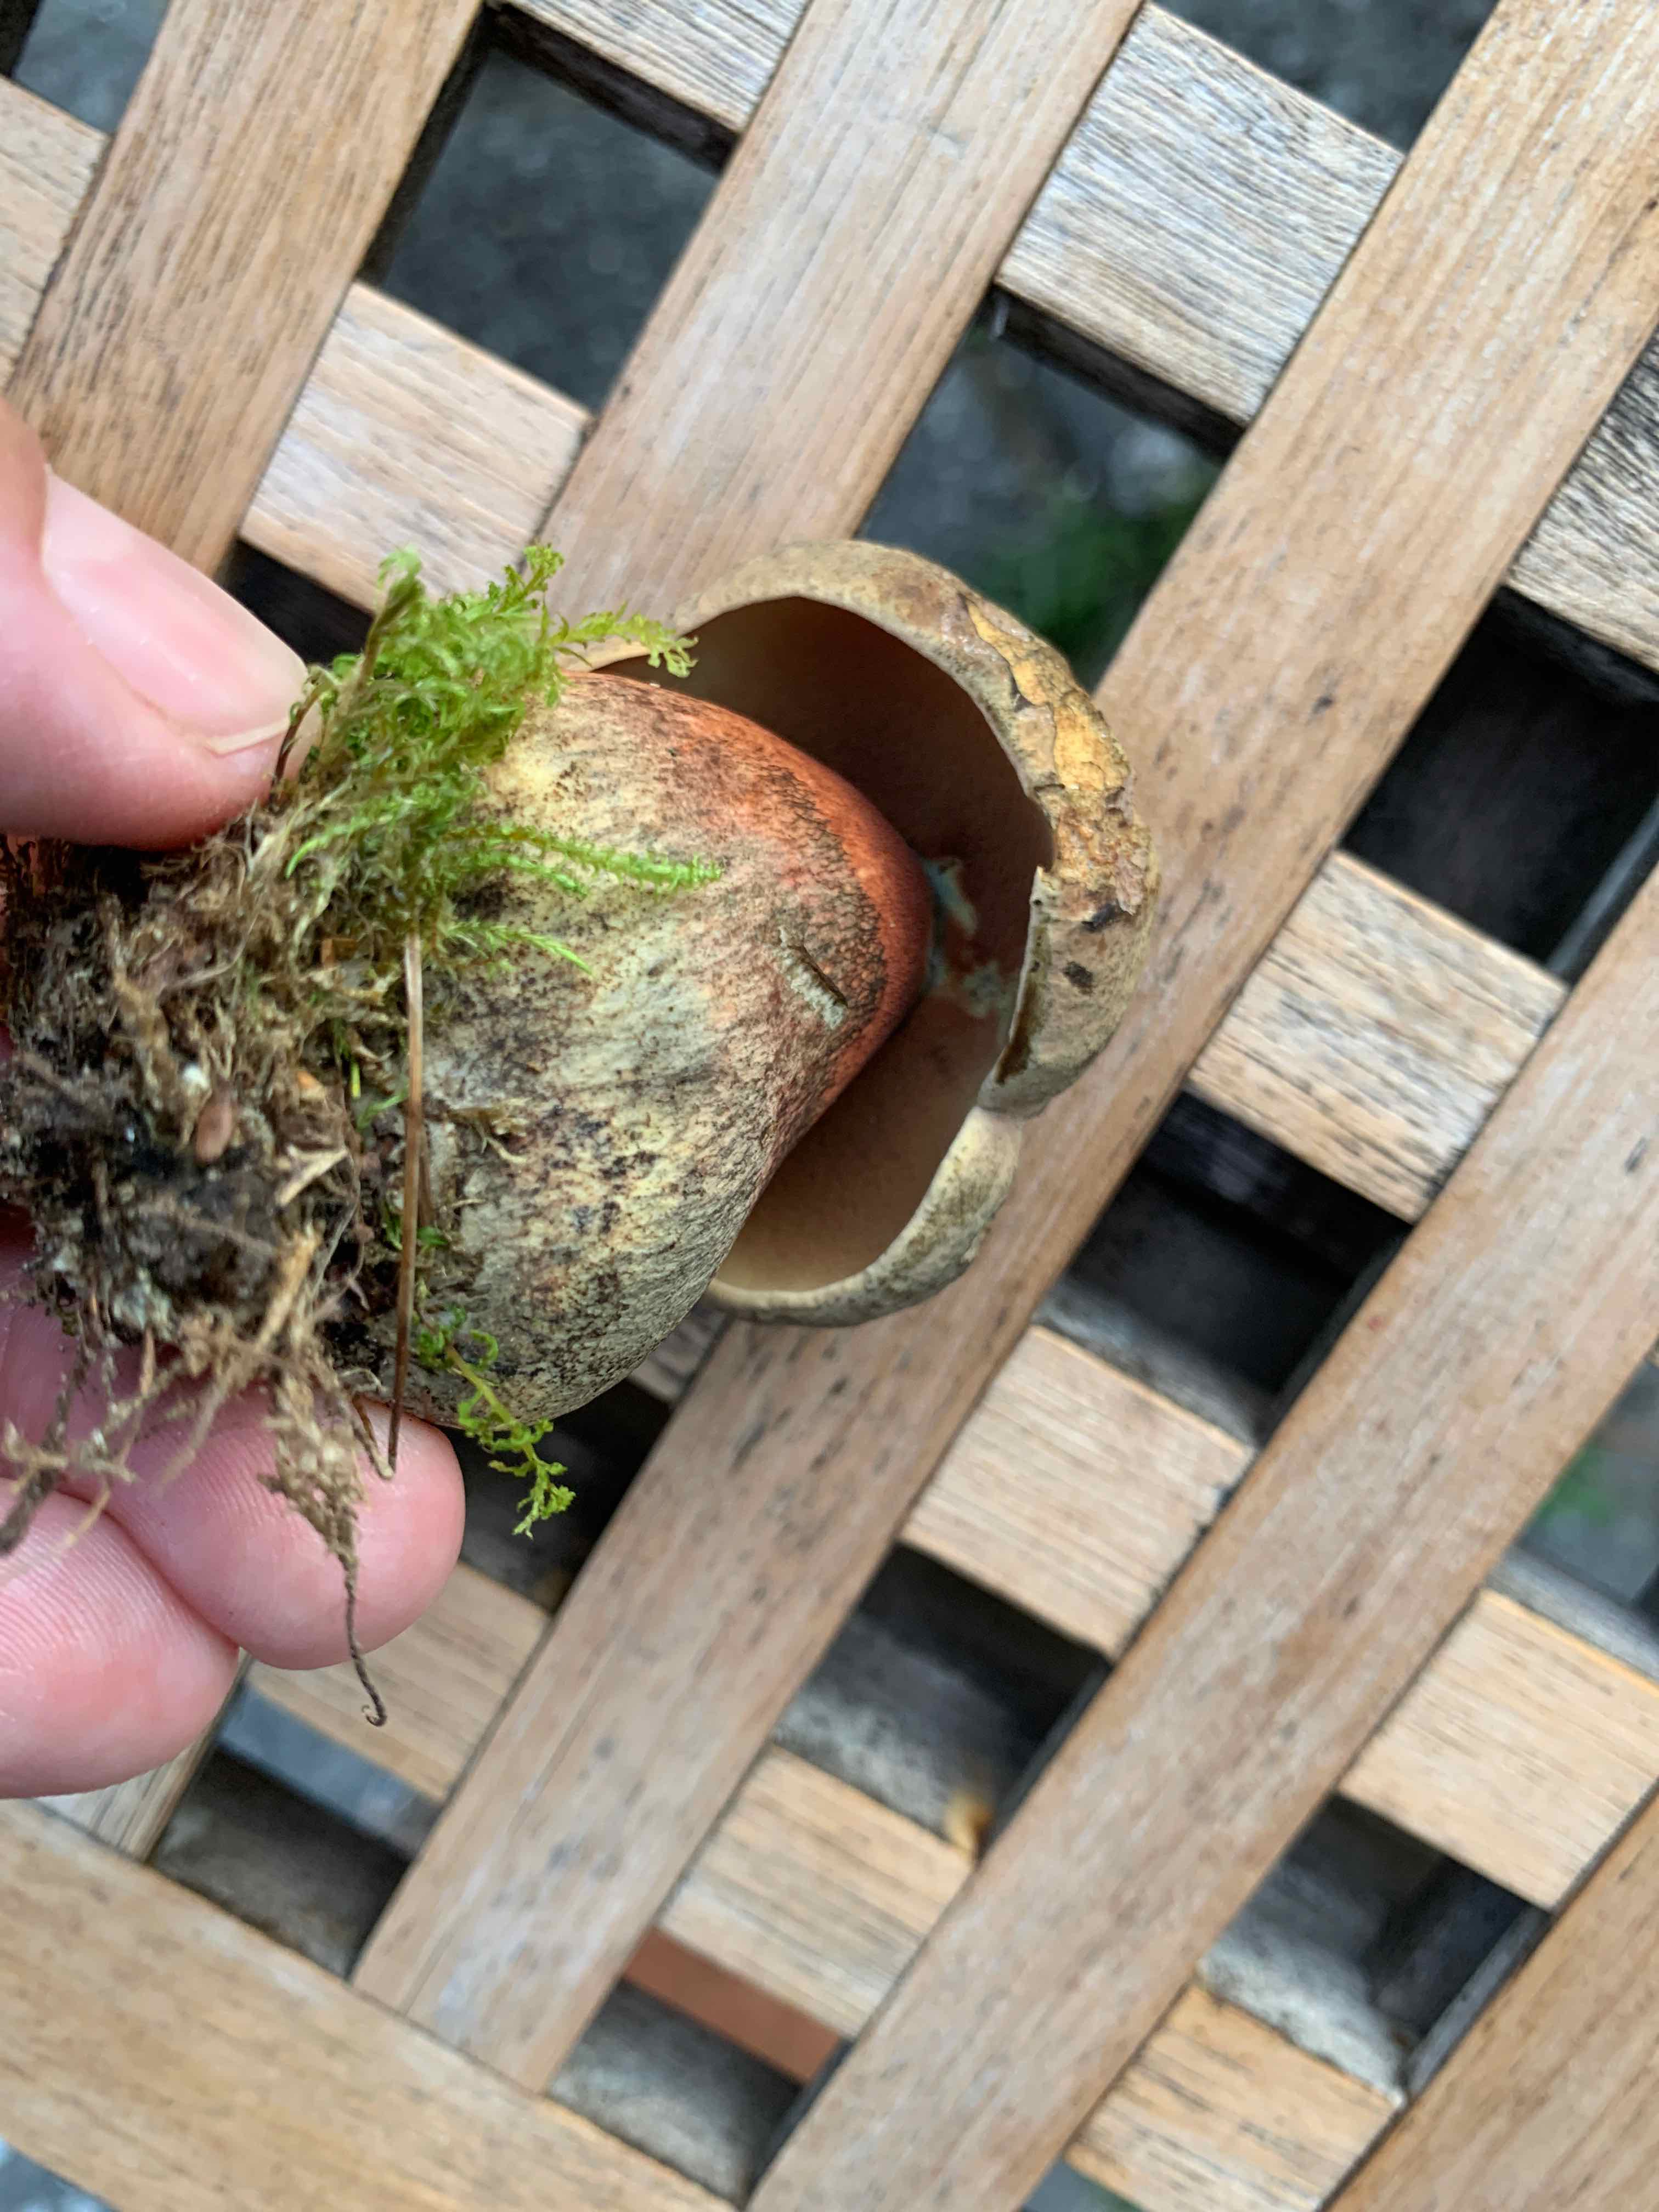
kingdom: Fungi
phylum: Basidiomycota
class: Agaricomycetes
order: Boletales
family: Boletaceae
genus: Suillellus
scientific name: Suillellus luridus
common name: netstokket indigorørhat
